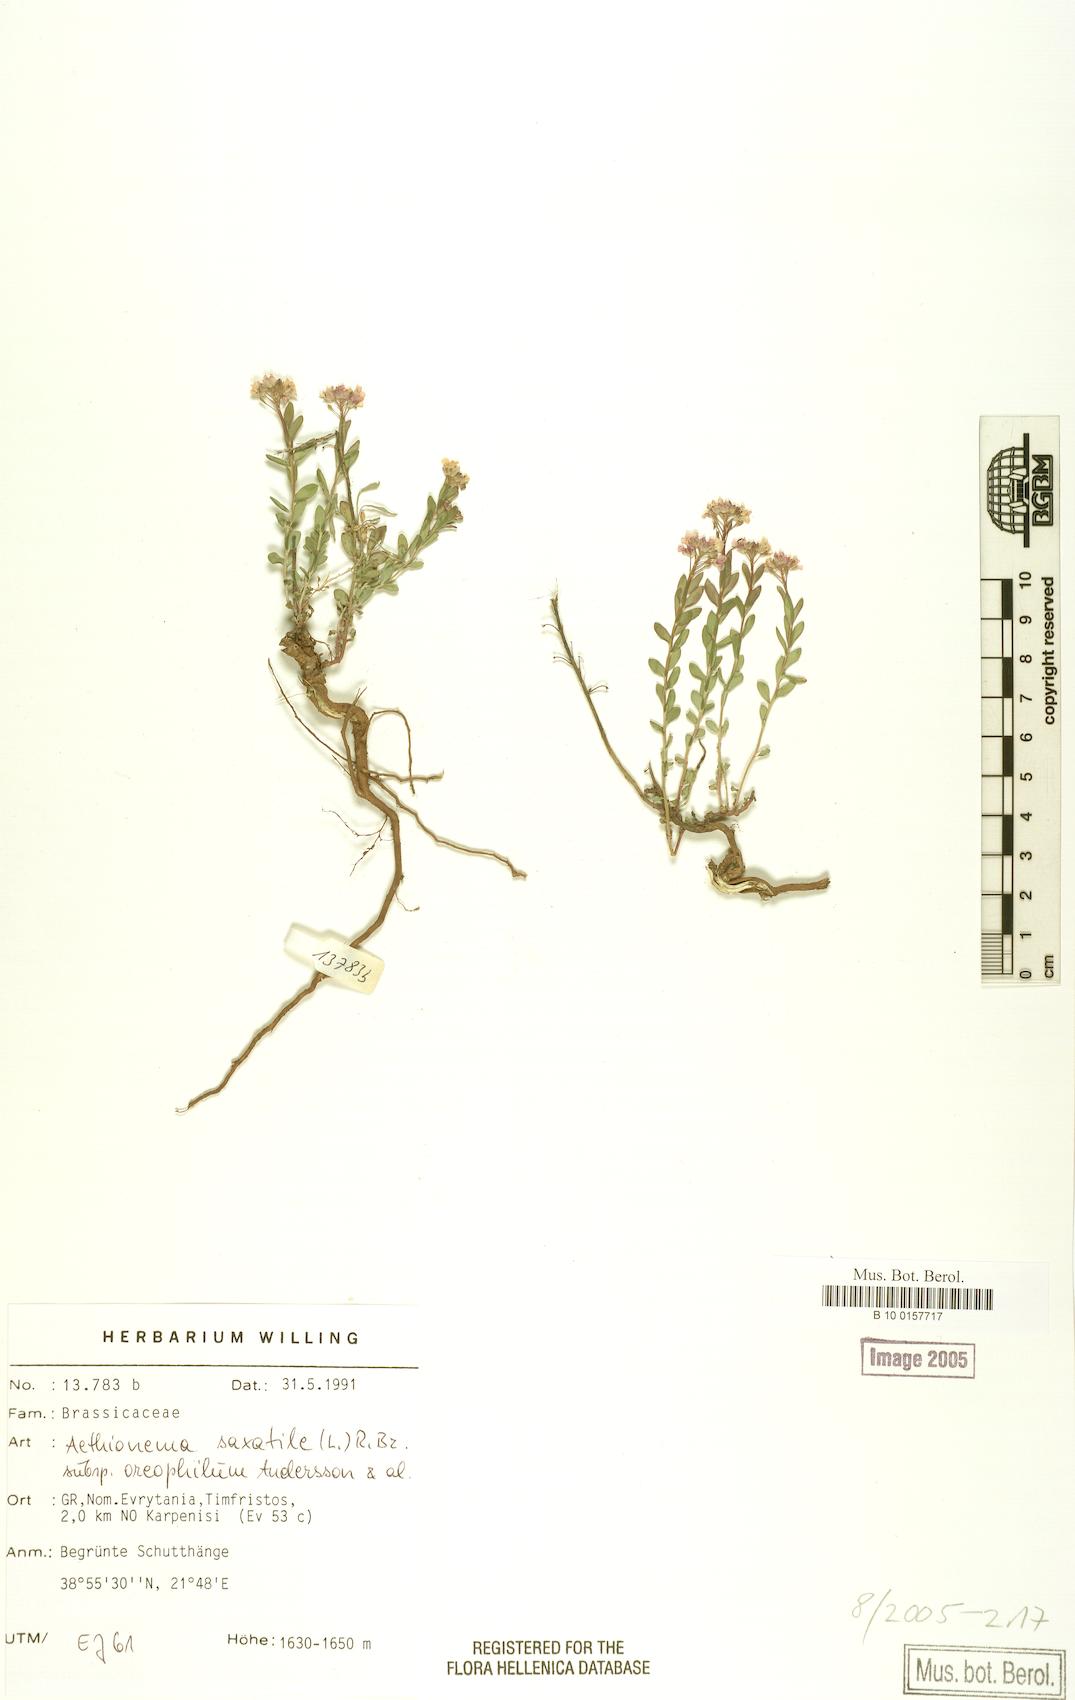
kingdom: Plantae
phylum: Tracheophyta
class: Magnoliopsida
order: Brassicales
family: Brassicaceae
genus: Aethionema
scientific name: Aethionema saxatile
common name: Burnt candytuft
